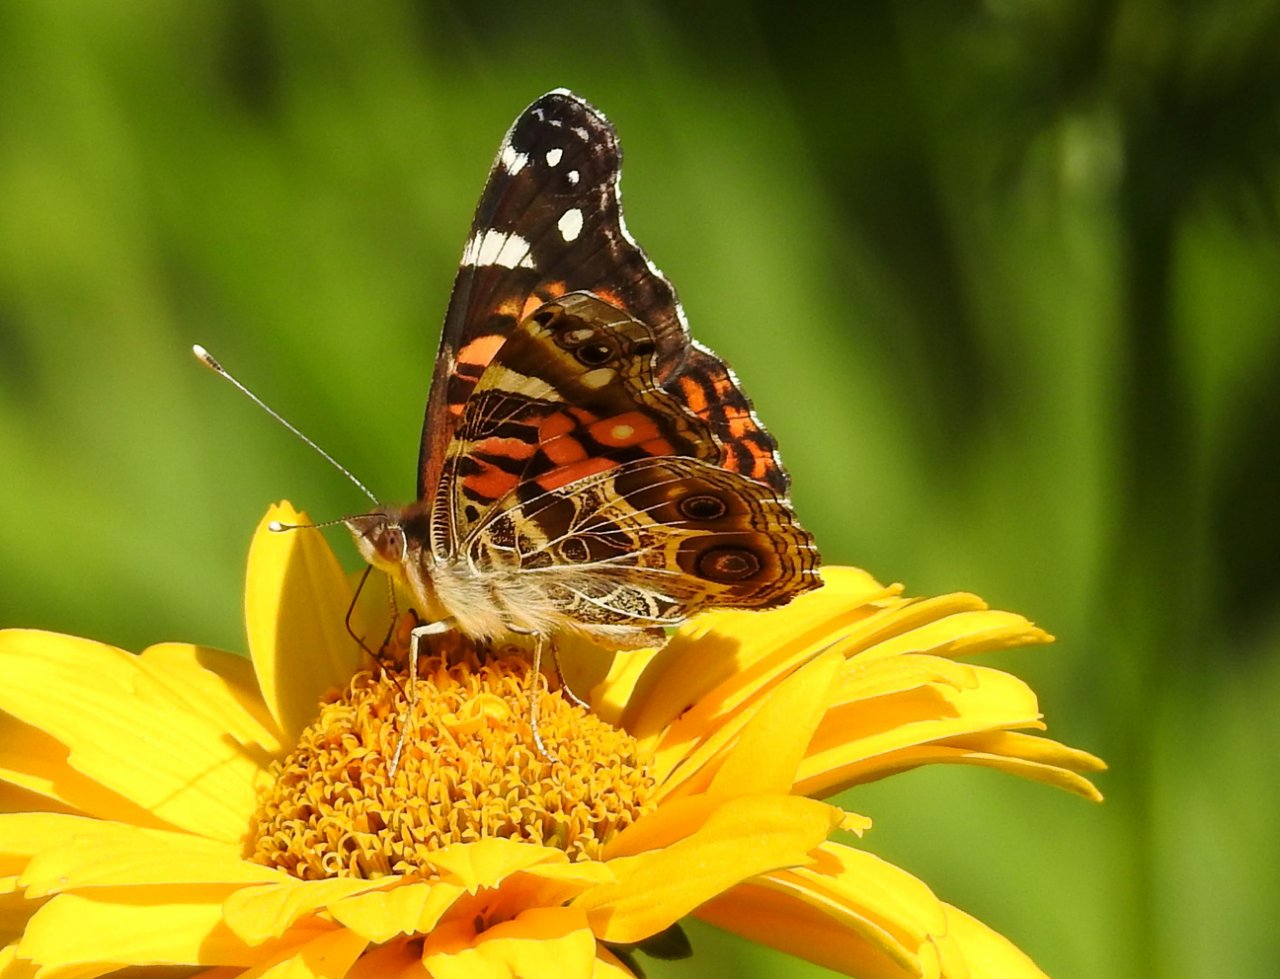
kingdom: Animalia
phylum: Arthropoda
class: Insecta
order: Lepidoptera
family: Nymphalidae
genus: Vanessa
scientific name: Vanessa virginiensis
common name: American Lady
